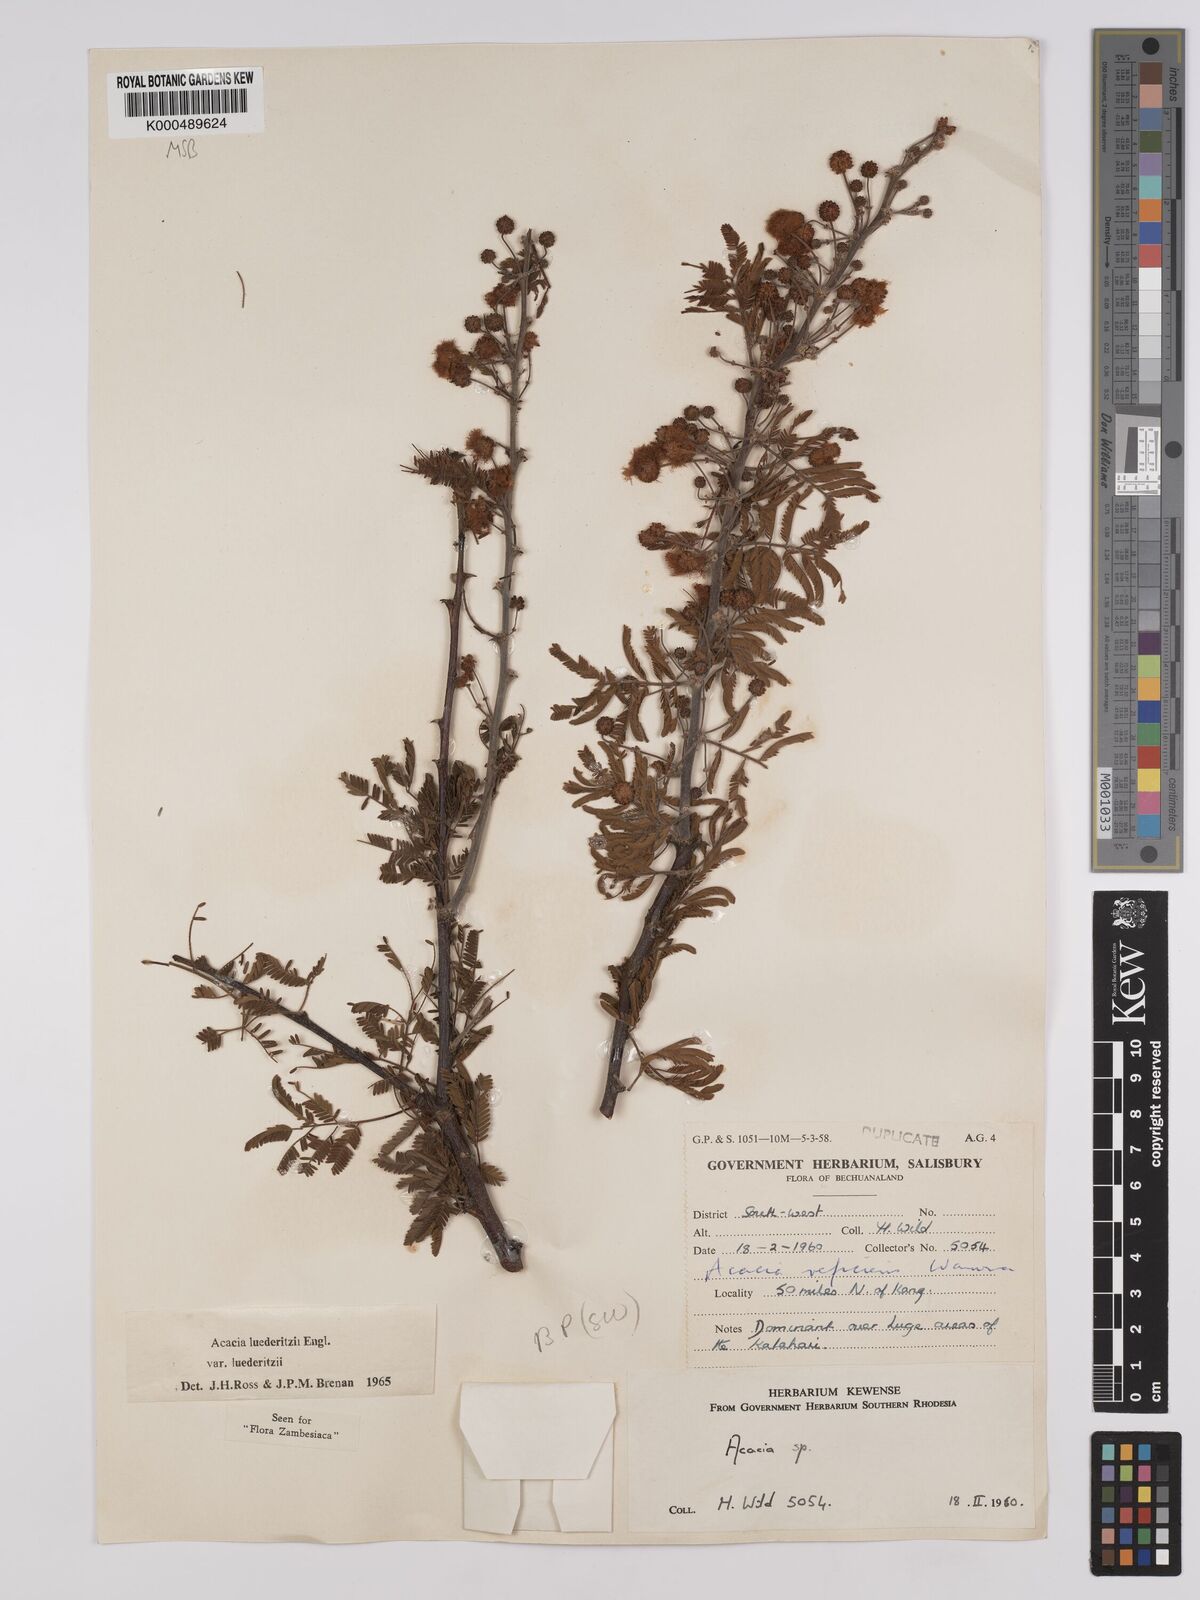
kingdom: Plantae
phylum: Tracheophyta
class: Magnoliopsida
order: Fabales
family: Fabaceae
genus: Vachellia
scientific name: Vachellia
